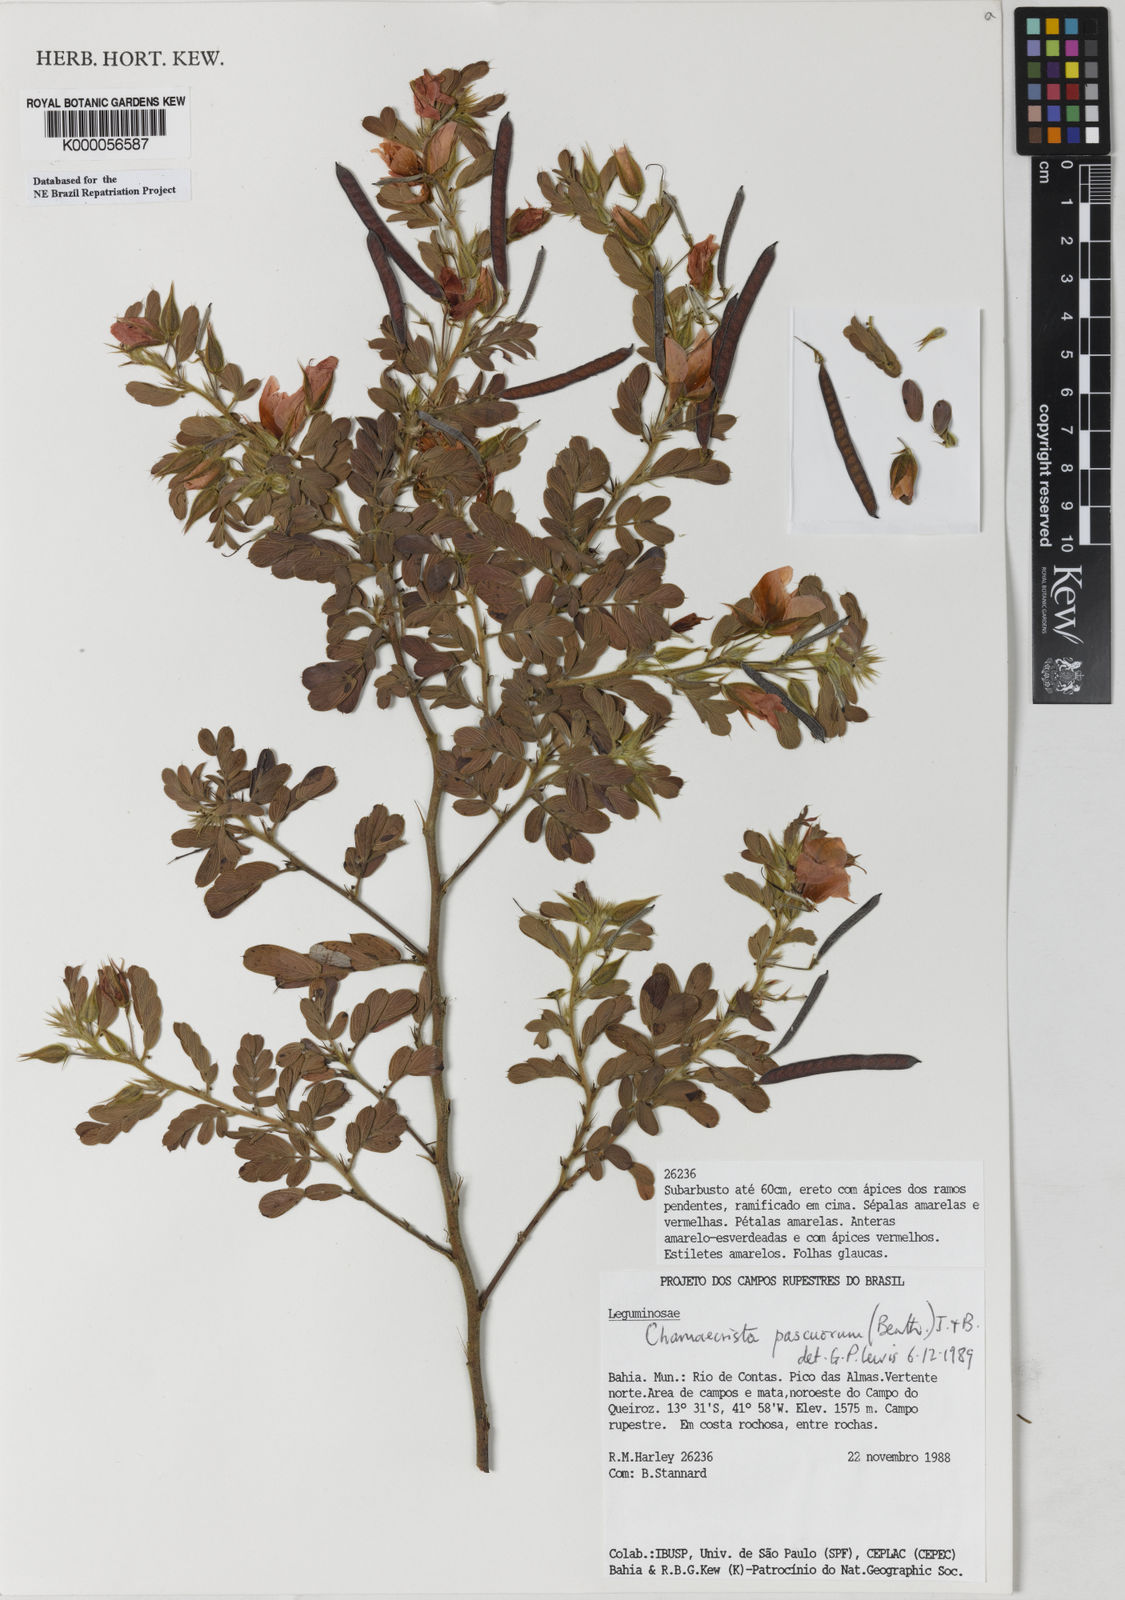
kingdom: Plantae
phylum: Tracheophyta
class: Magnoliopsida
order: Fabales
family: Fabaceae
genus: Chamaecrista
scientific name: Chamaecrista pascuorum
